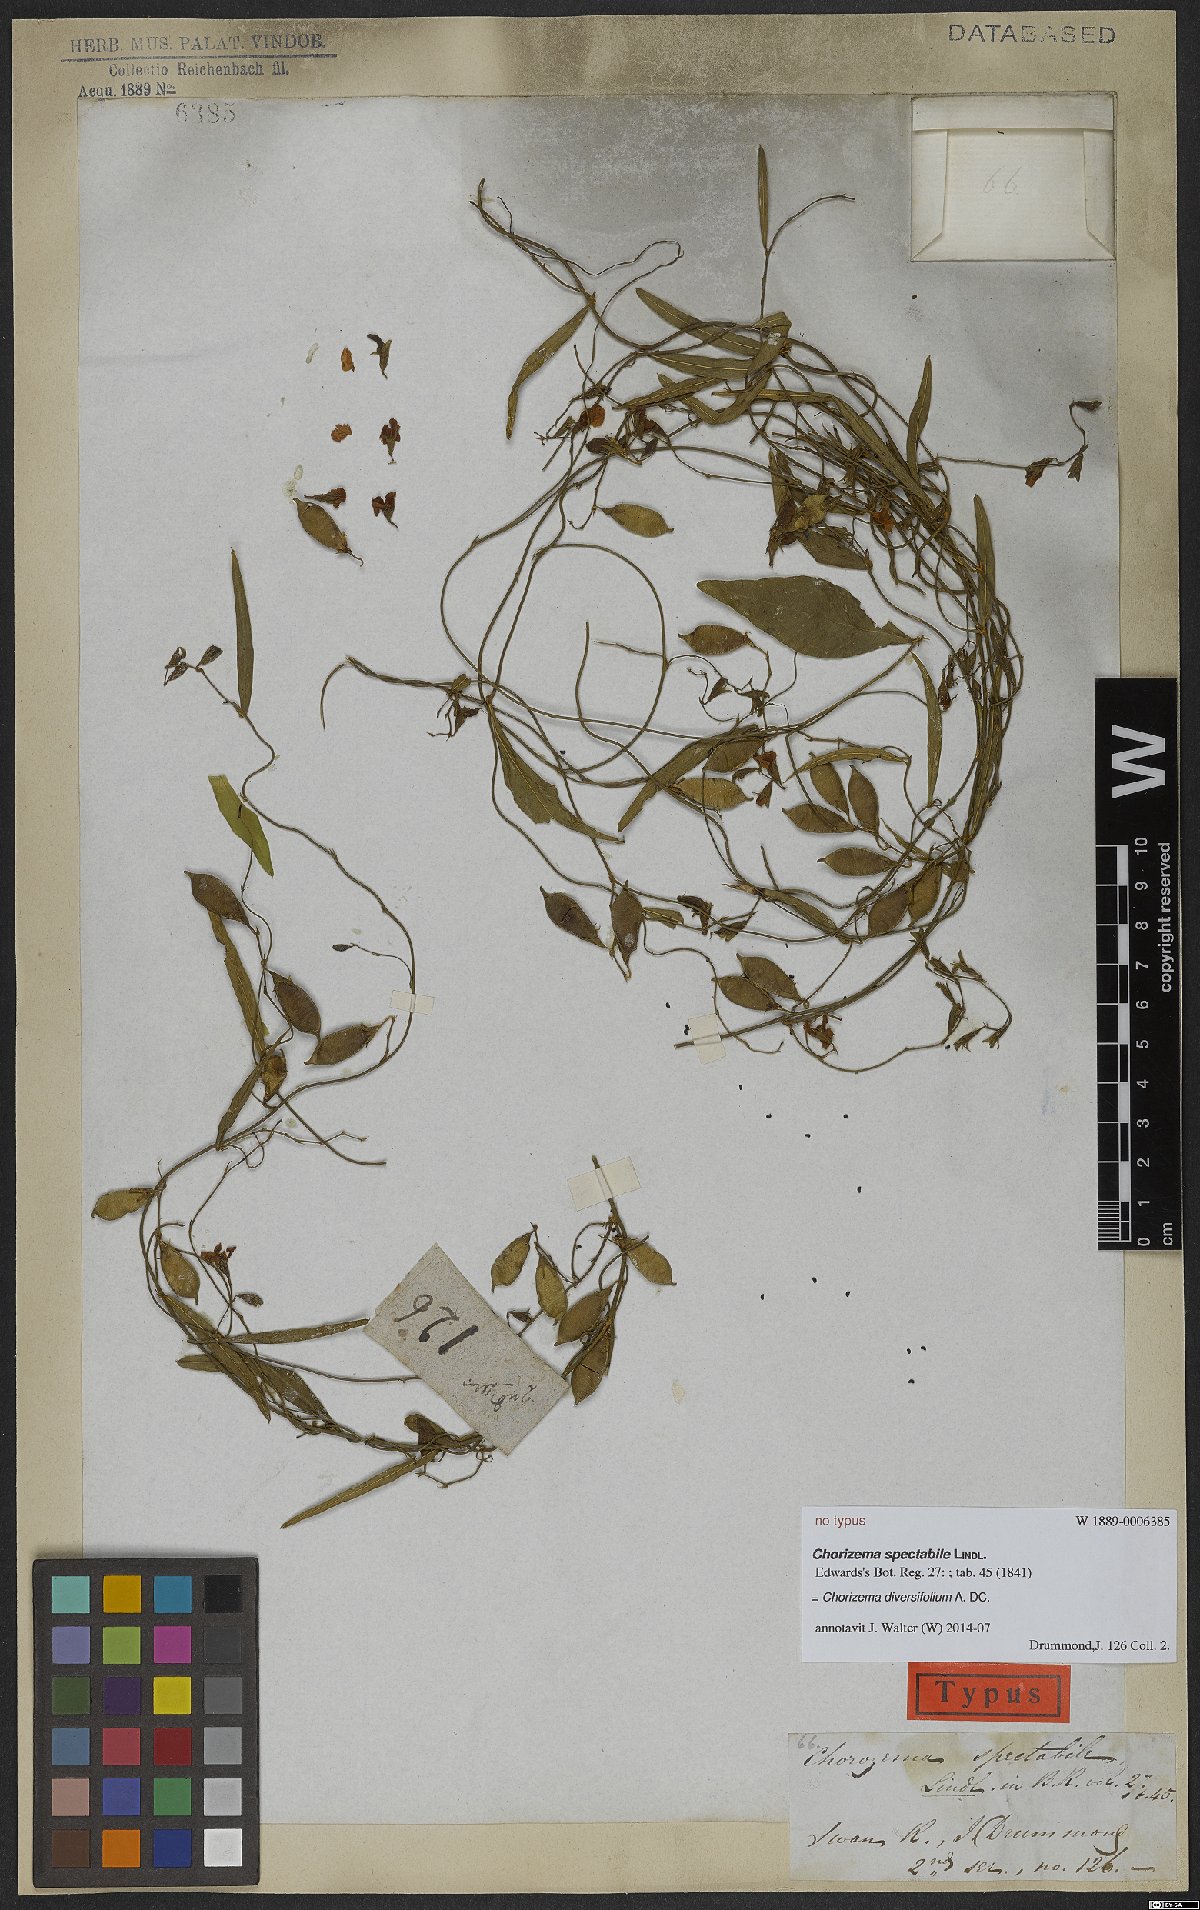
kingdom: Plantae
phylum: Tracheophyta
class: Magnoliopsida
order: Fabales
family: Fabaceae
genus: Chorizema
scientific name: Chorizema diversifolium
